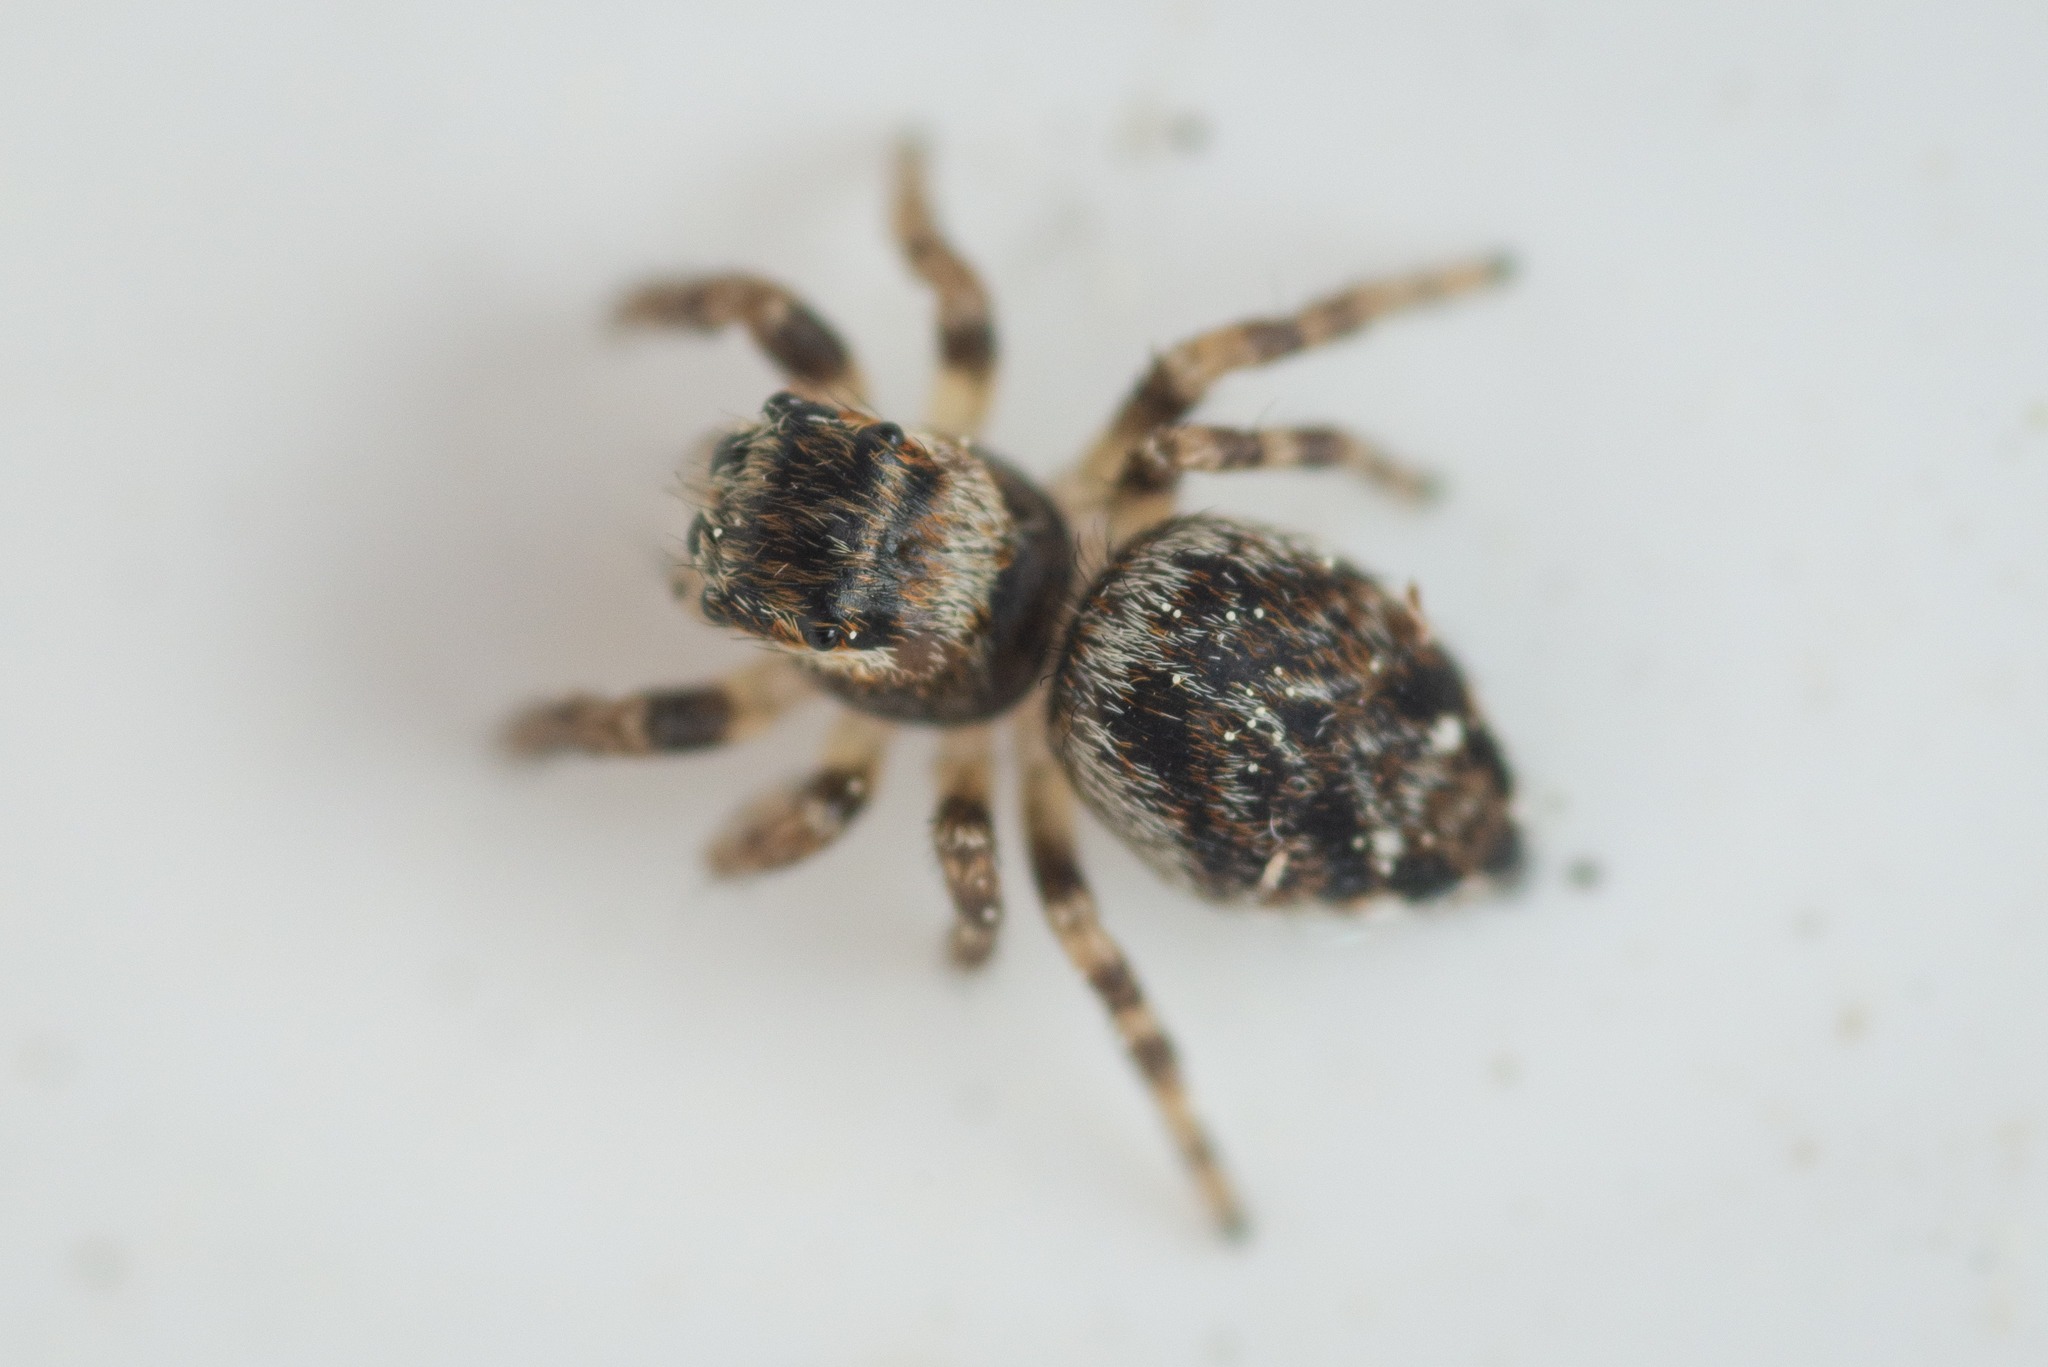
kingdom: Animalia
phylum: Arthropoda
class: Arachnida
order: Araneae
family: Salticidae
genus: Evarcha
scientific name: Evarcha falcata
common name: Broget springedderkop
